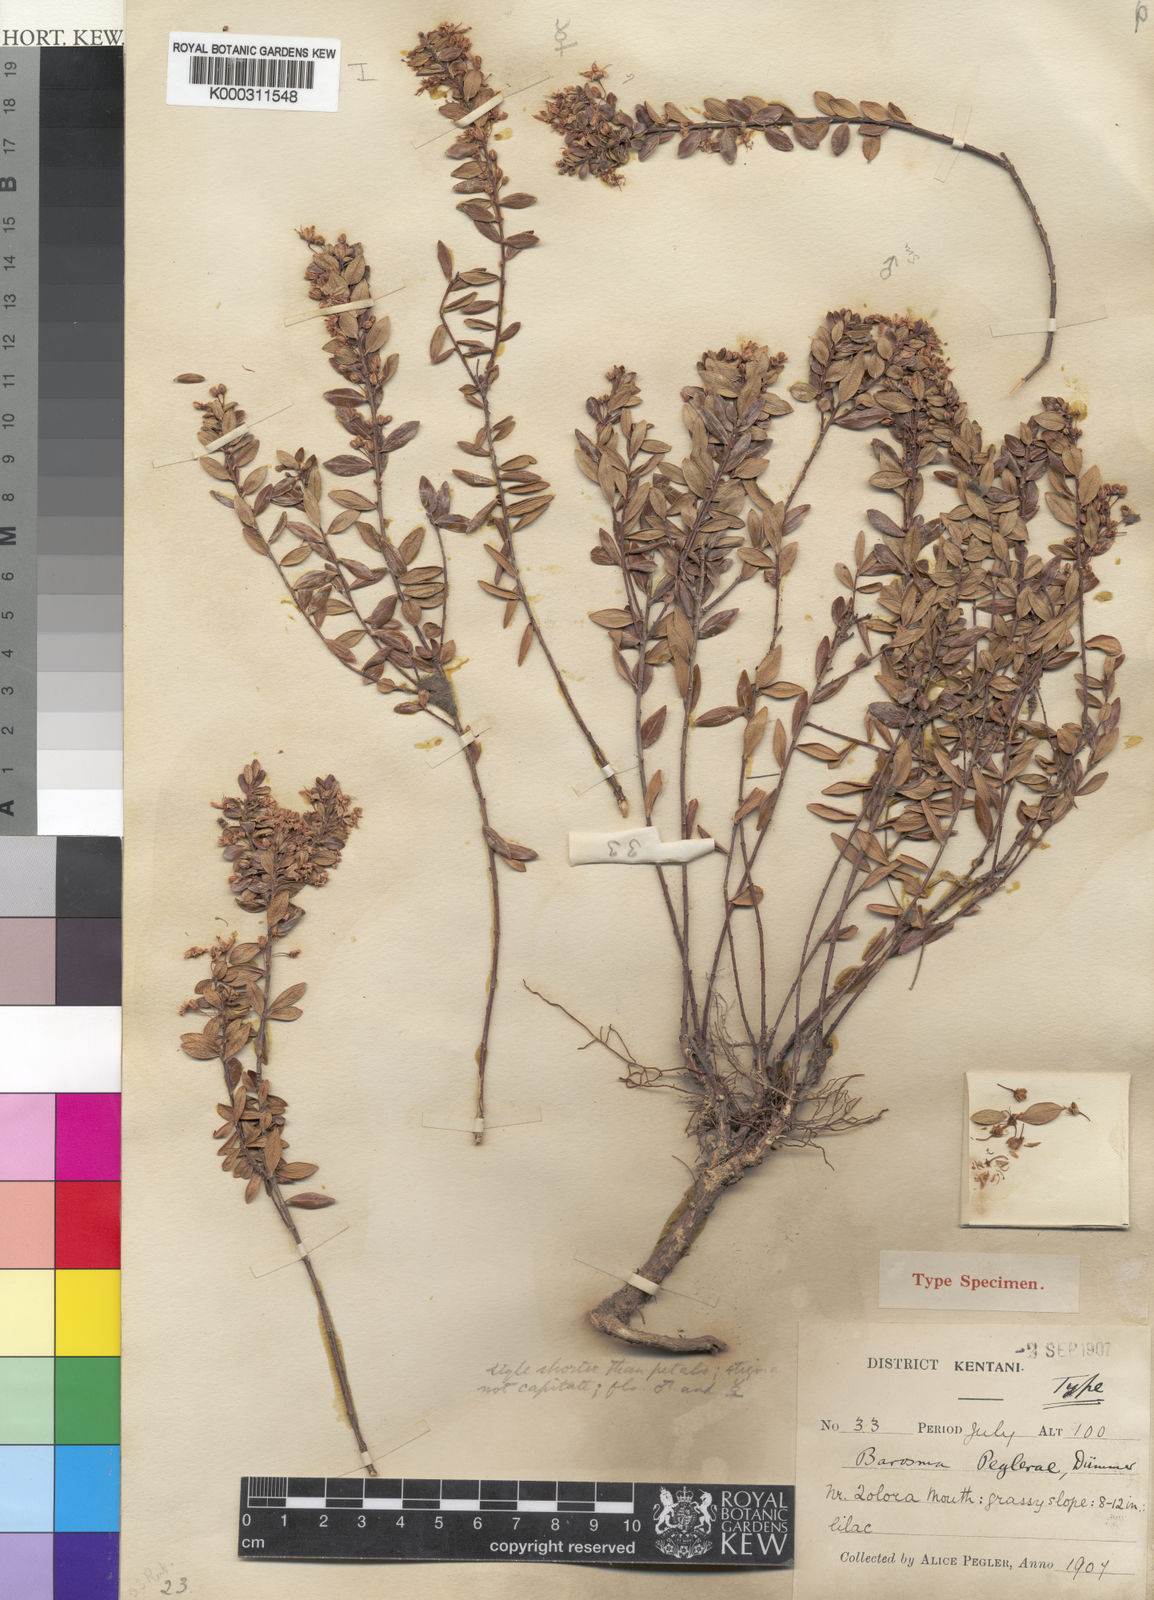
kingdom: Plantae
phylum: Tracheophyta
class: Magnoliopsida
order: Sapindales
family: Rutaceae
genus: Agathosma
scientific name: Agathosma
